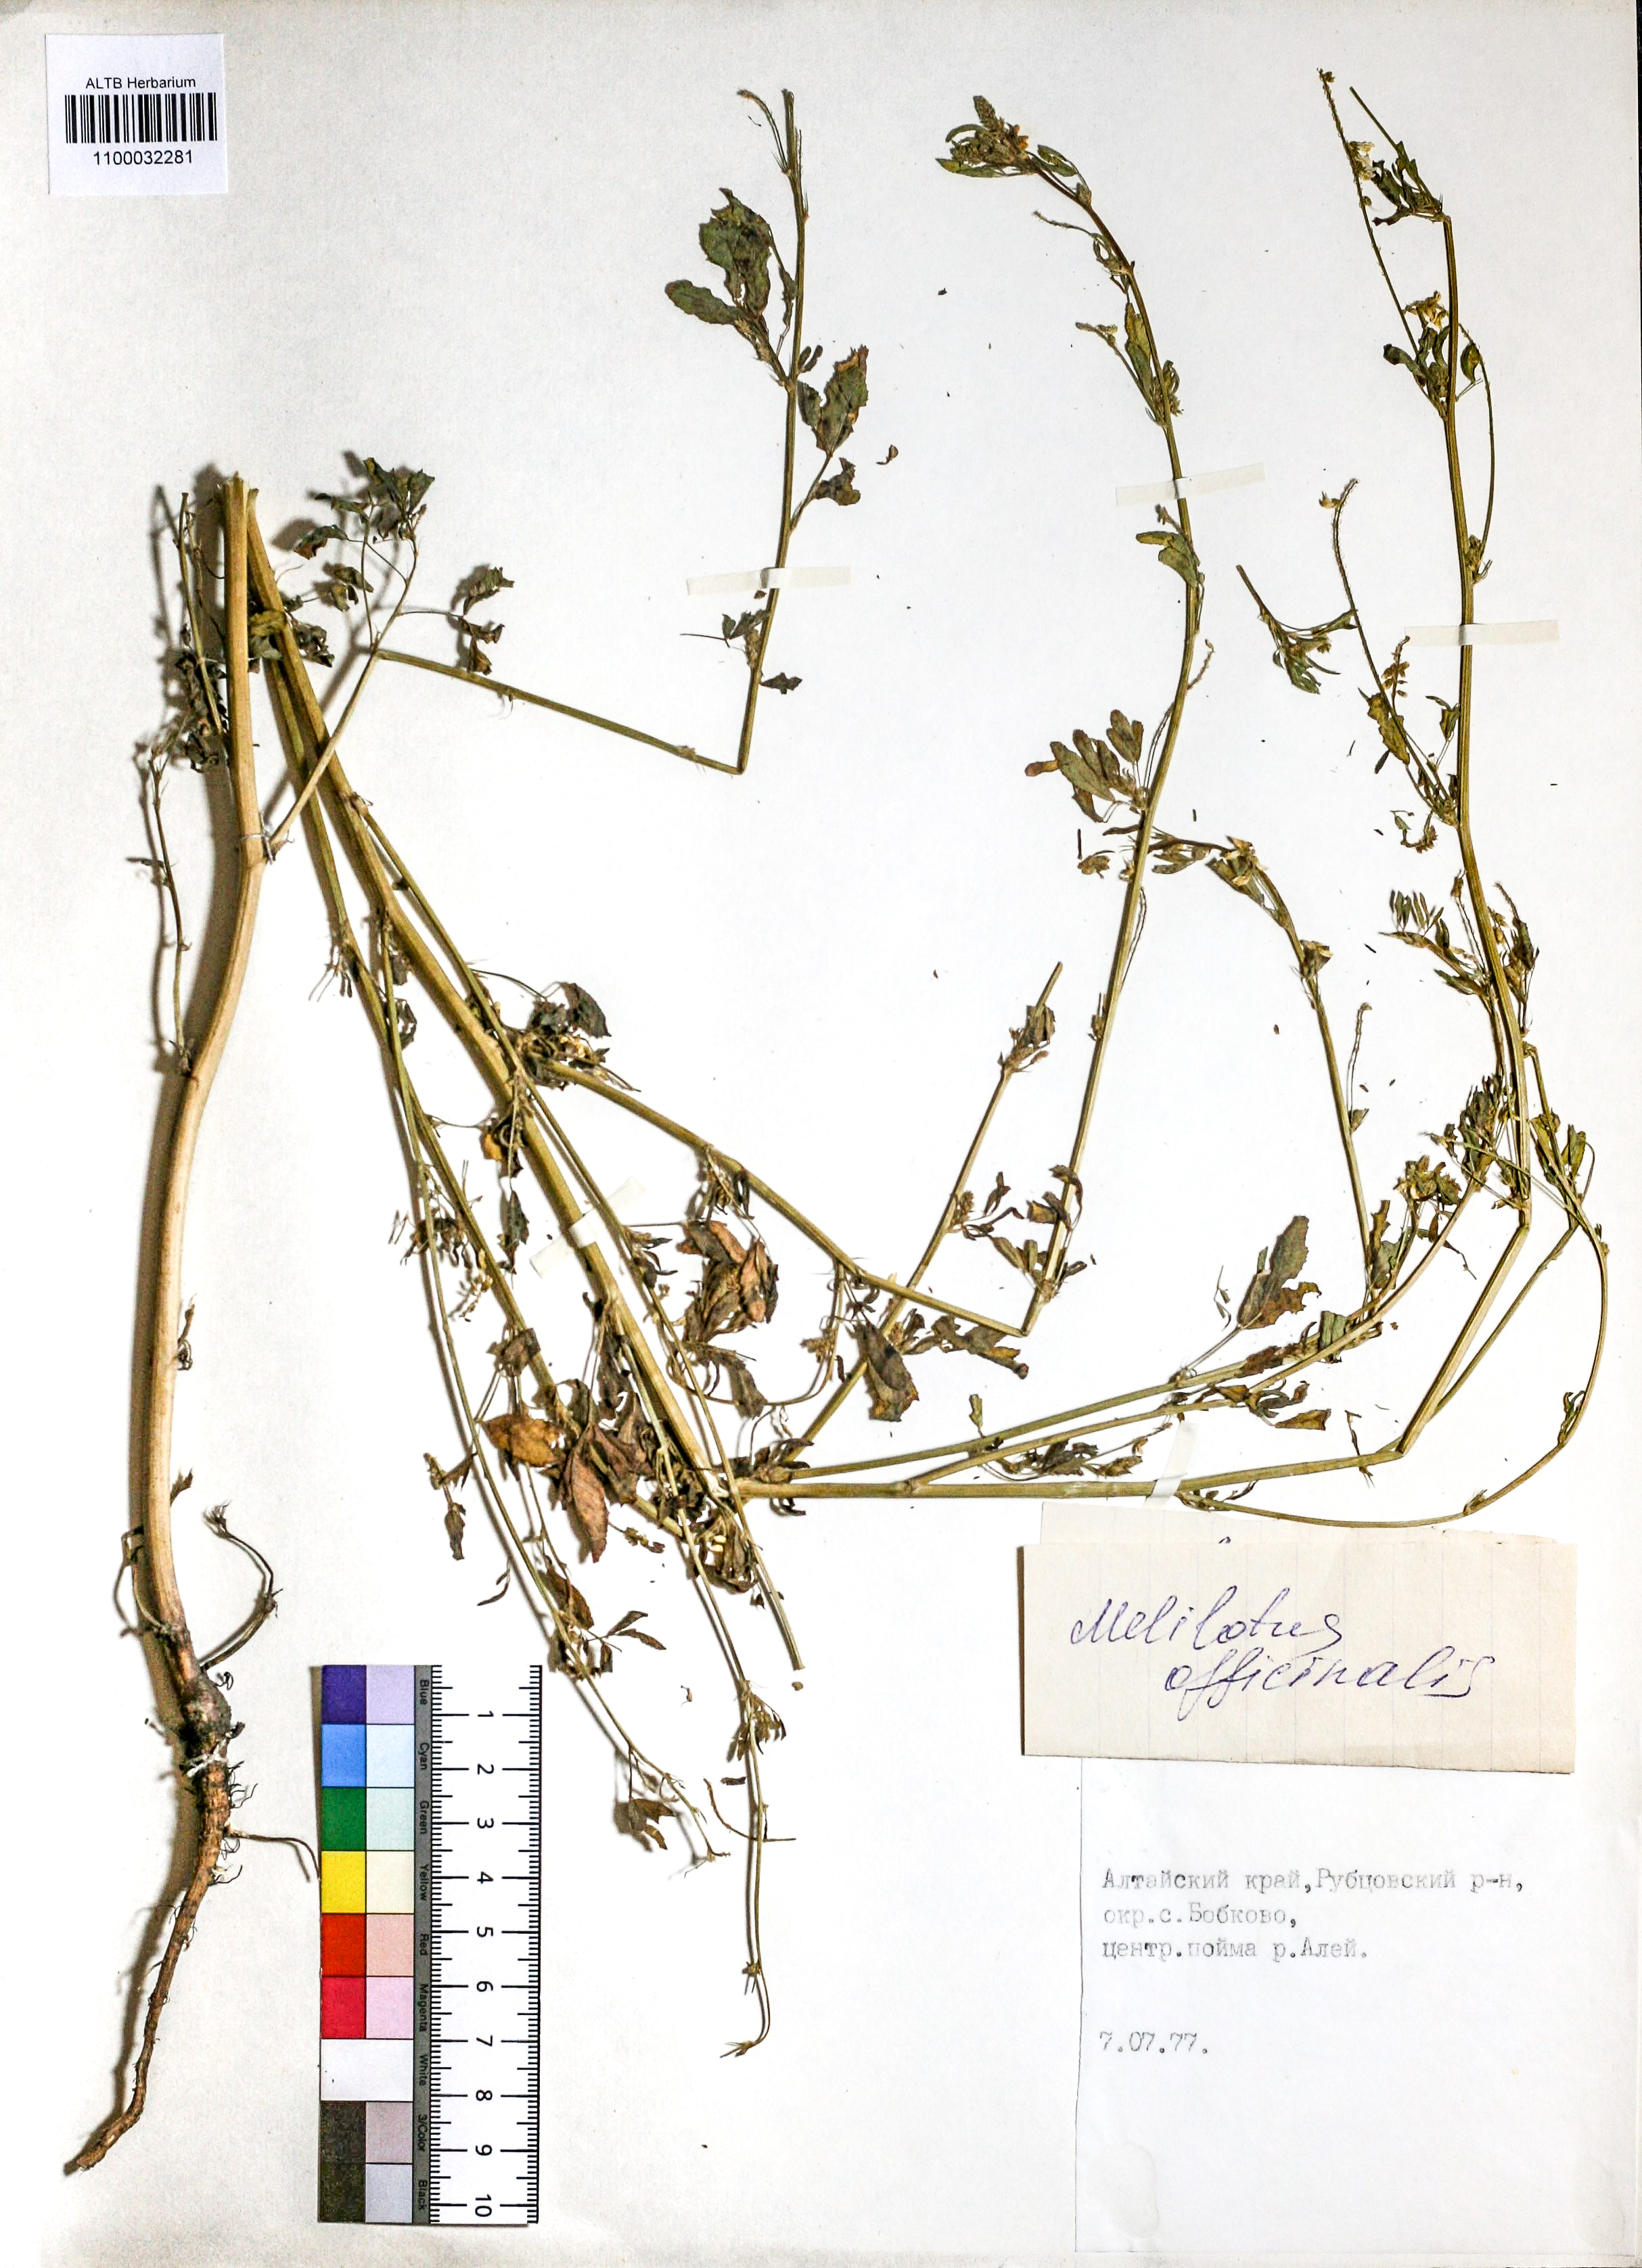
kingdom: Plantae
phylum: Tracheophyta
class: Magnoliopsida
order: Fabales
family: Fabaceae
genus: Melilotus
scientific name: Melilotus officinalis
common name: Sweetclover
